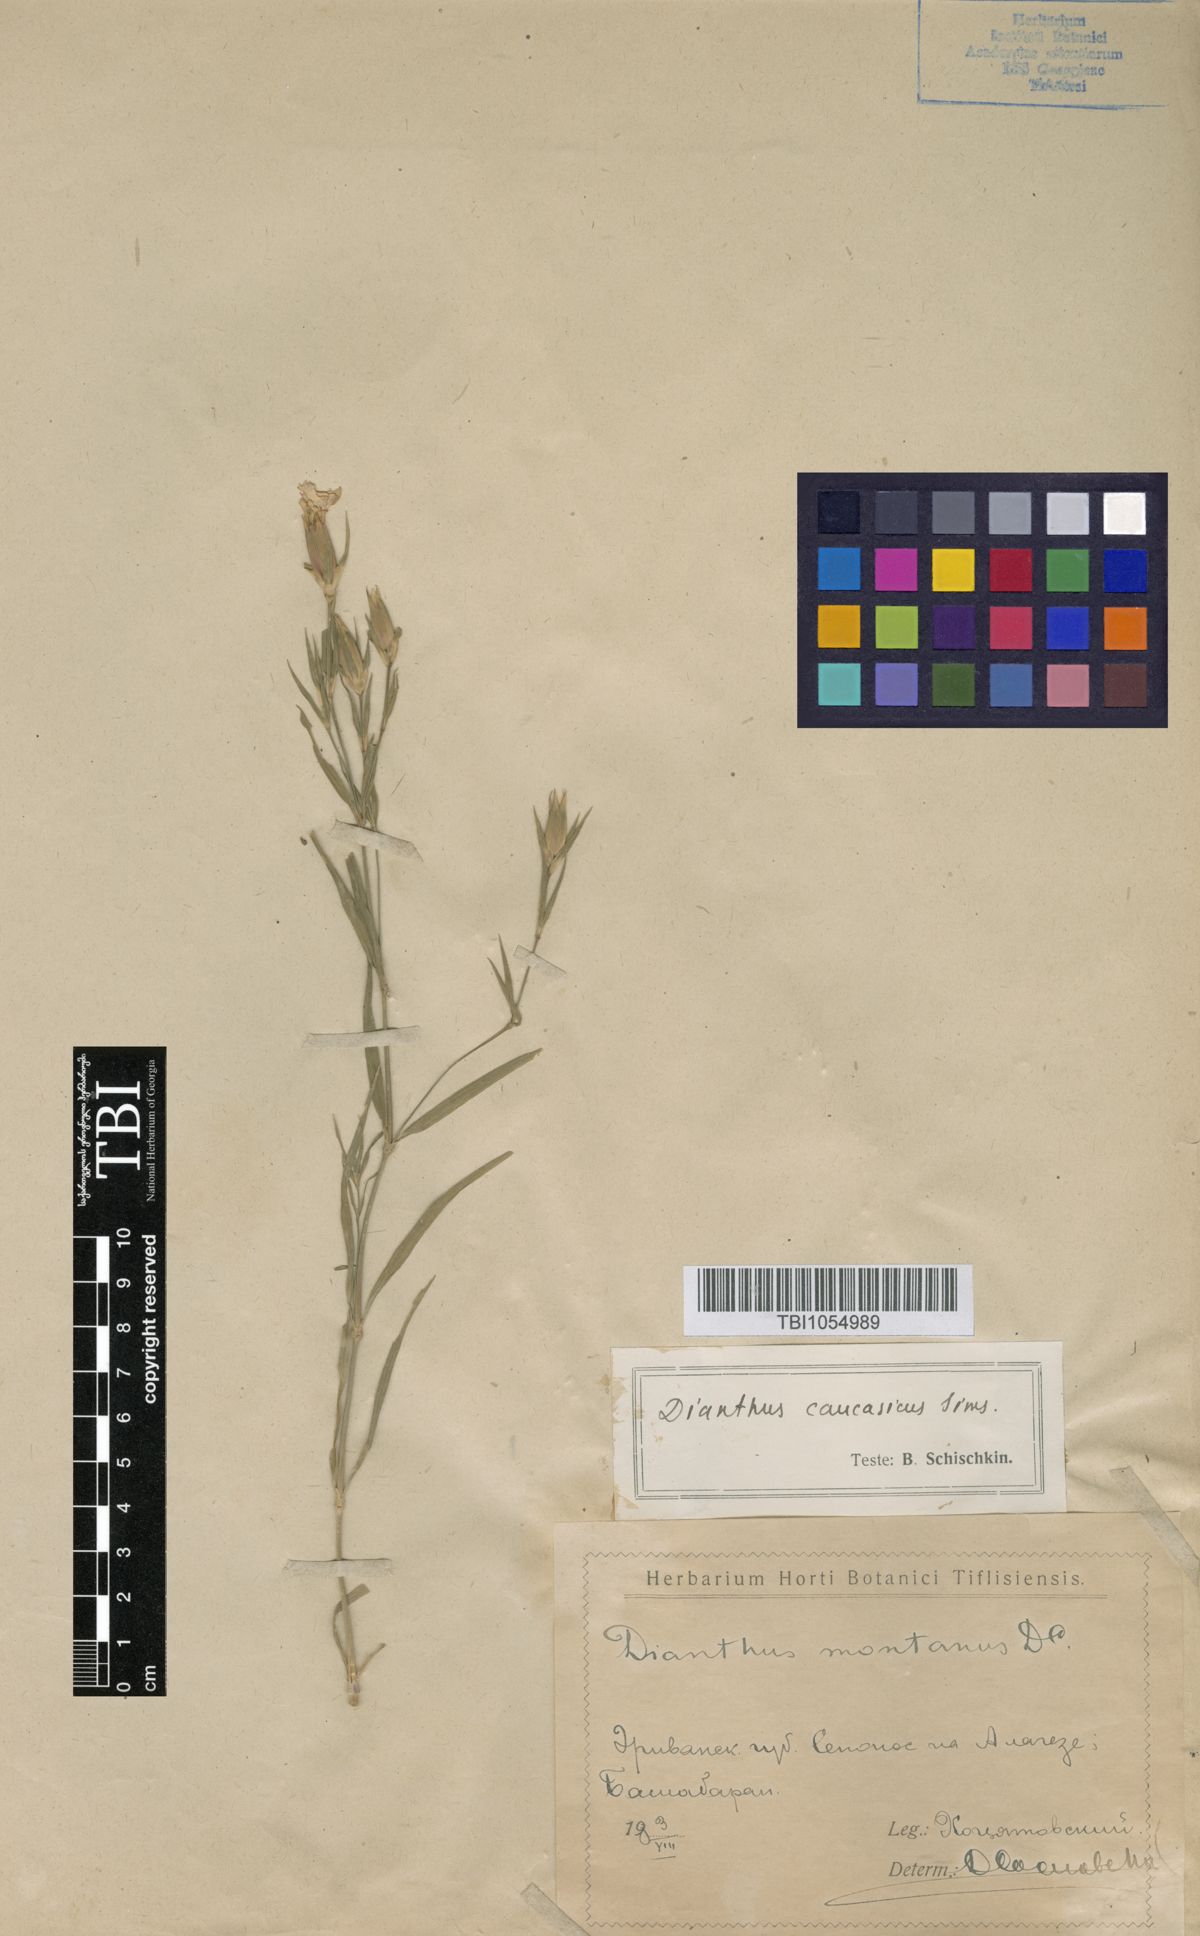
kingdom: Plantae
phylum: Tracheophyta
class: Magnoliopsida
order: Caryophyllales
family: Caryophyllaceae
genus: Dianthus
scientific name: Dianthus caucaseus
